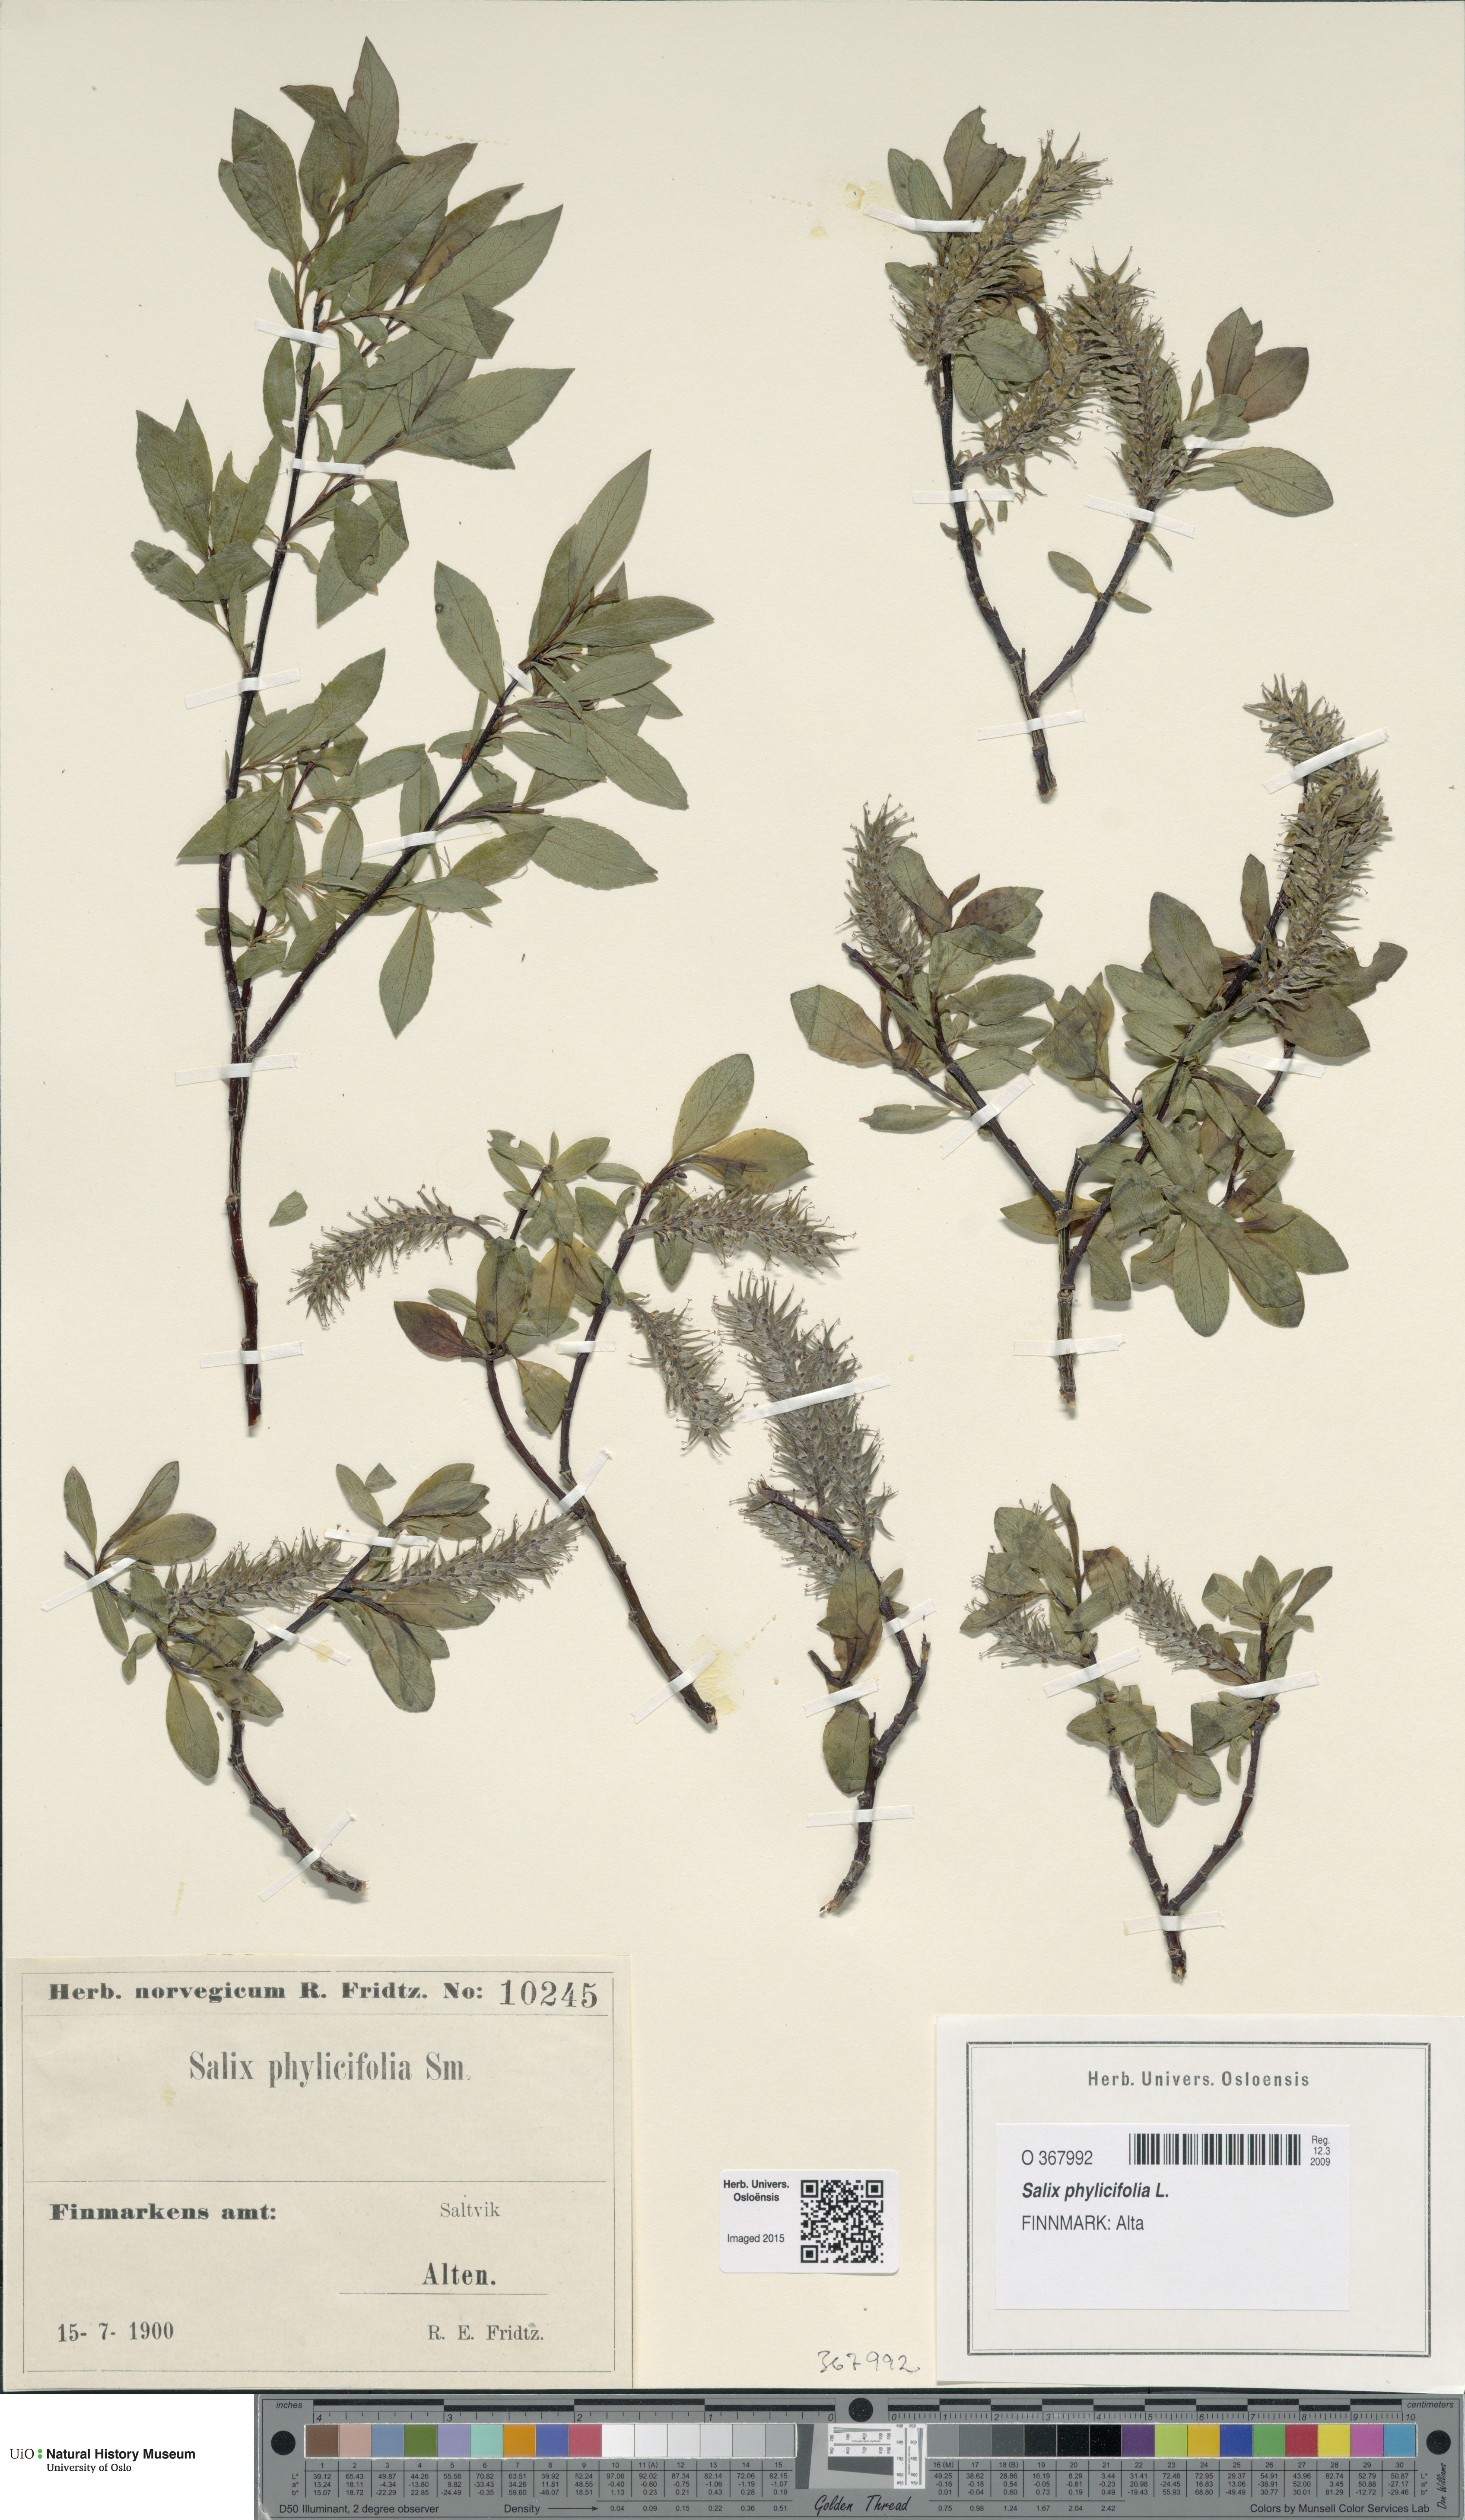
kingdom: Plantae
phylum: Tracheophyta
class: Magnoliopsida
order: Malpighiales
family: Salicaceae
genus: Salix
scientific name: Salix phylicifolia
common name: Tea-leaved willow
